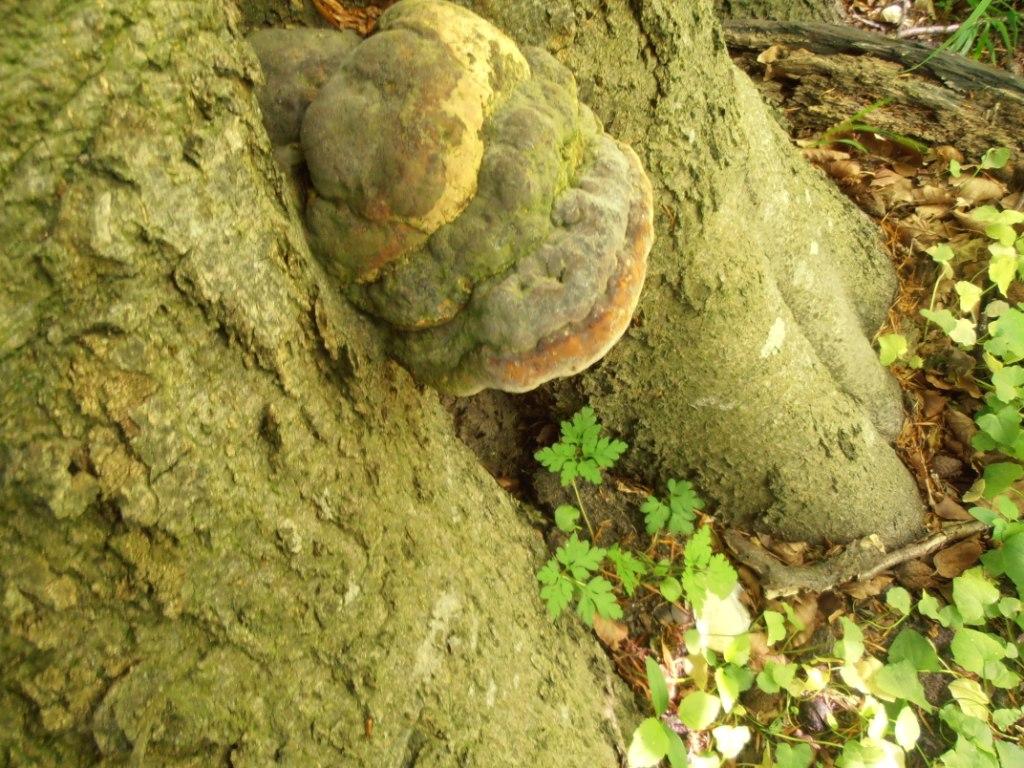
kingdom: Fungi
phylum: Basidiomycota
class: Agaricomycetes
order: Polyporales
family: Polyporaceae
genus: Ganoderma
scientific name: Ganoderma pfeifferi
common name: kobberrød lakporesvamp
